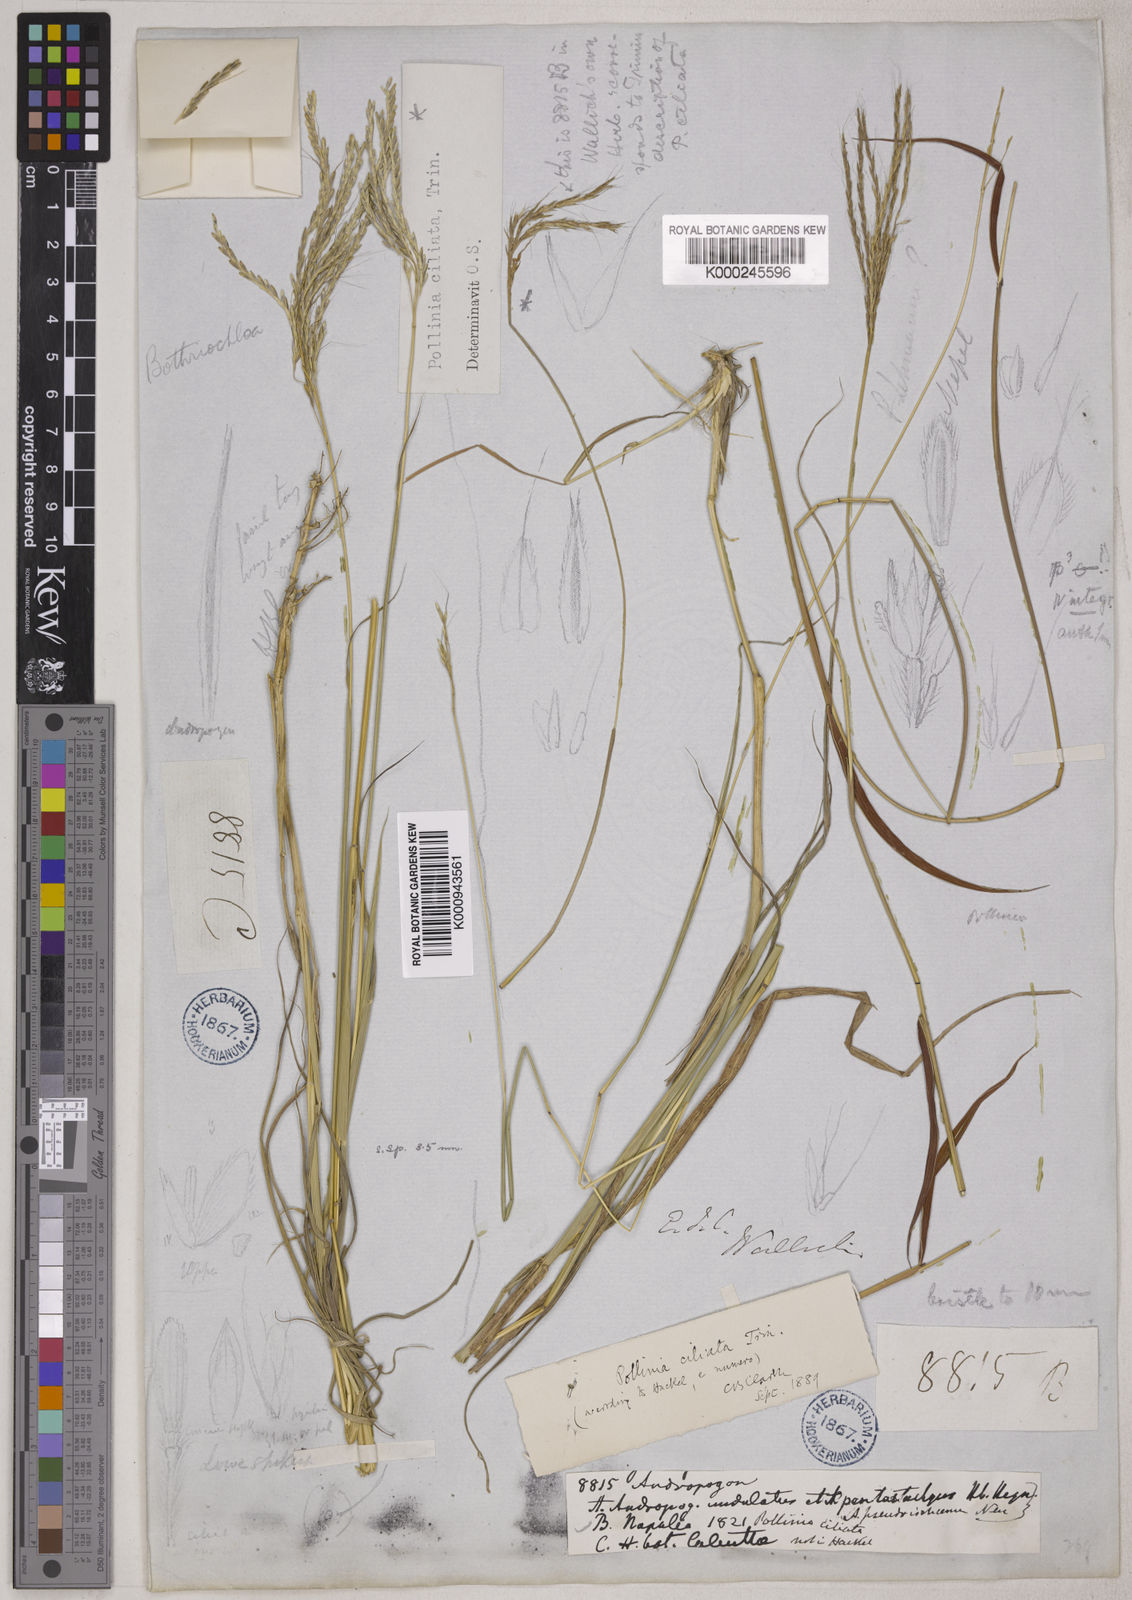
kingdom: Plantae
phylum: Tracheophyta
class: Liliopsida
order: Poales
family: Poaceae
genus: Microstegium
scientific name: Microstegium fasciculatum
